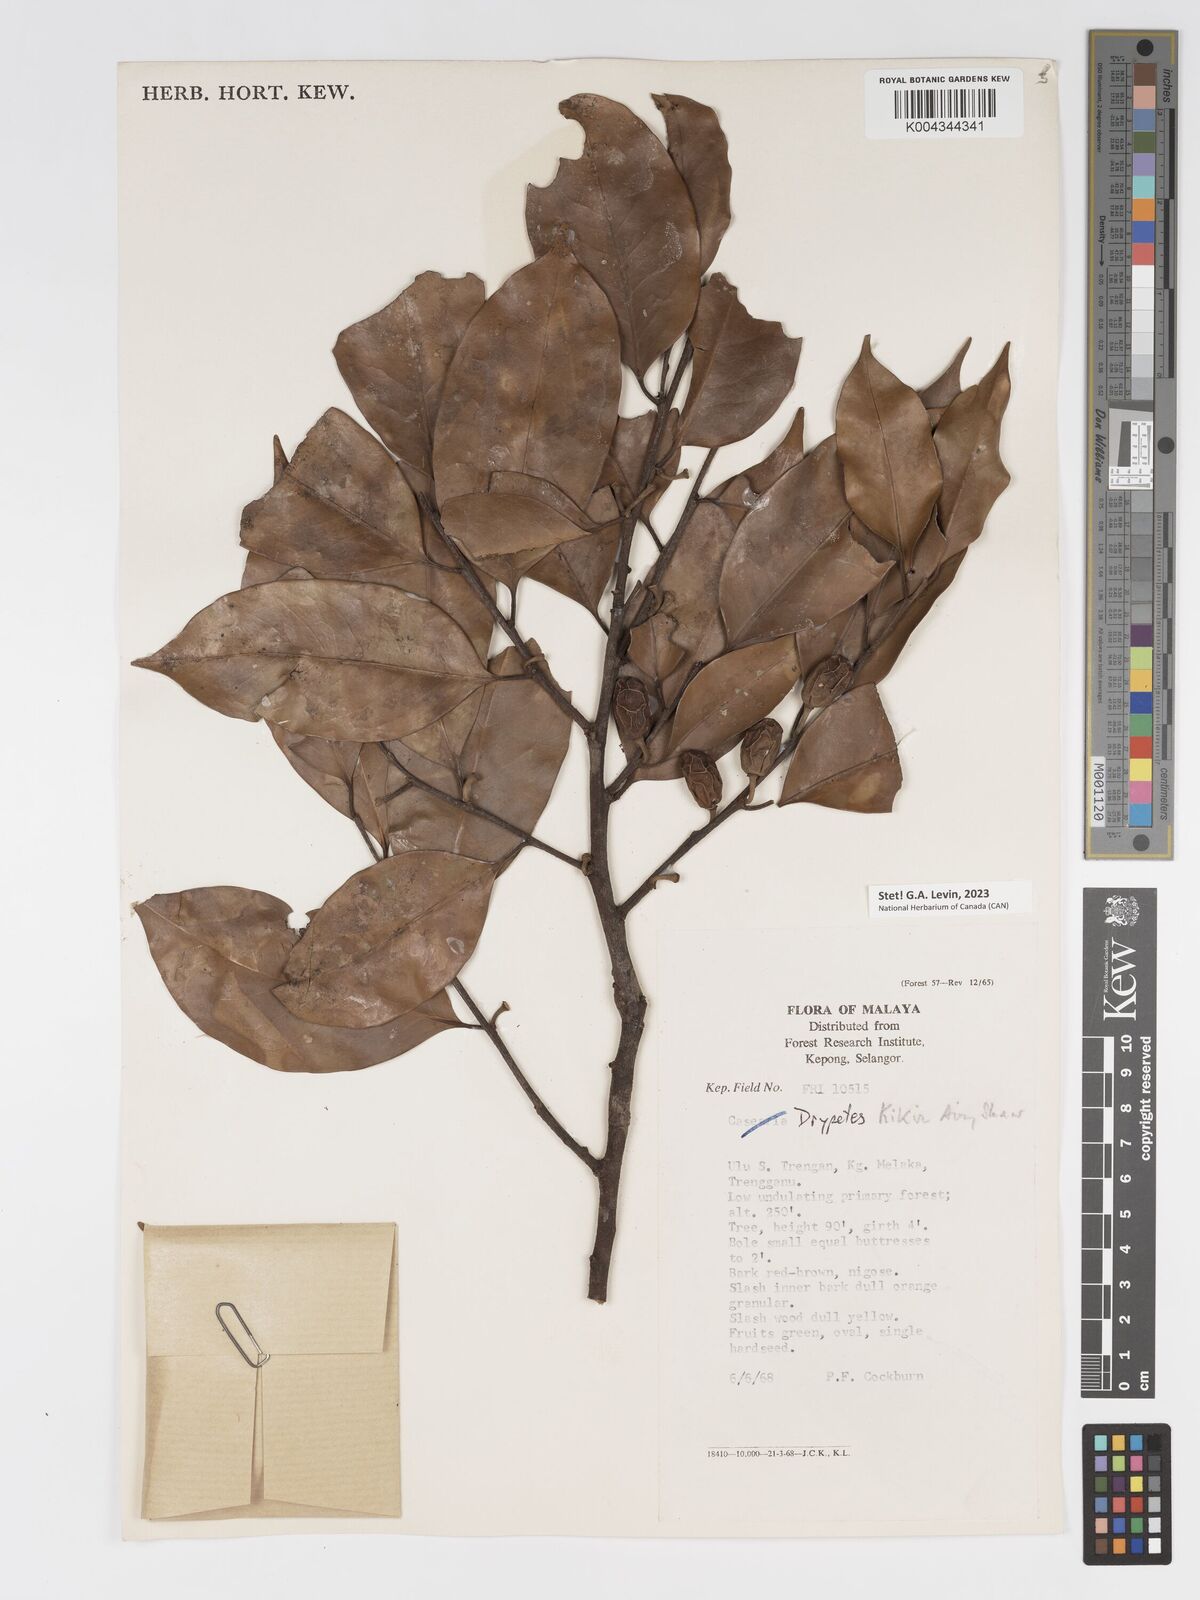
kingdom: Plantae
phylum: Tracheophyta
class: Magnoliopsida
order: Malpighiales
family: Putranjivaceae
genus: Drypetes
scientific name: Drypetes kikir
